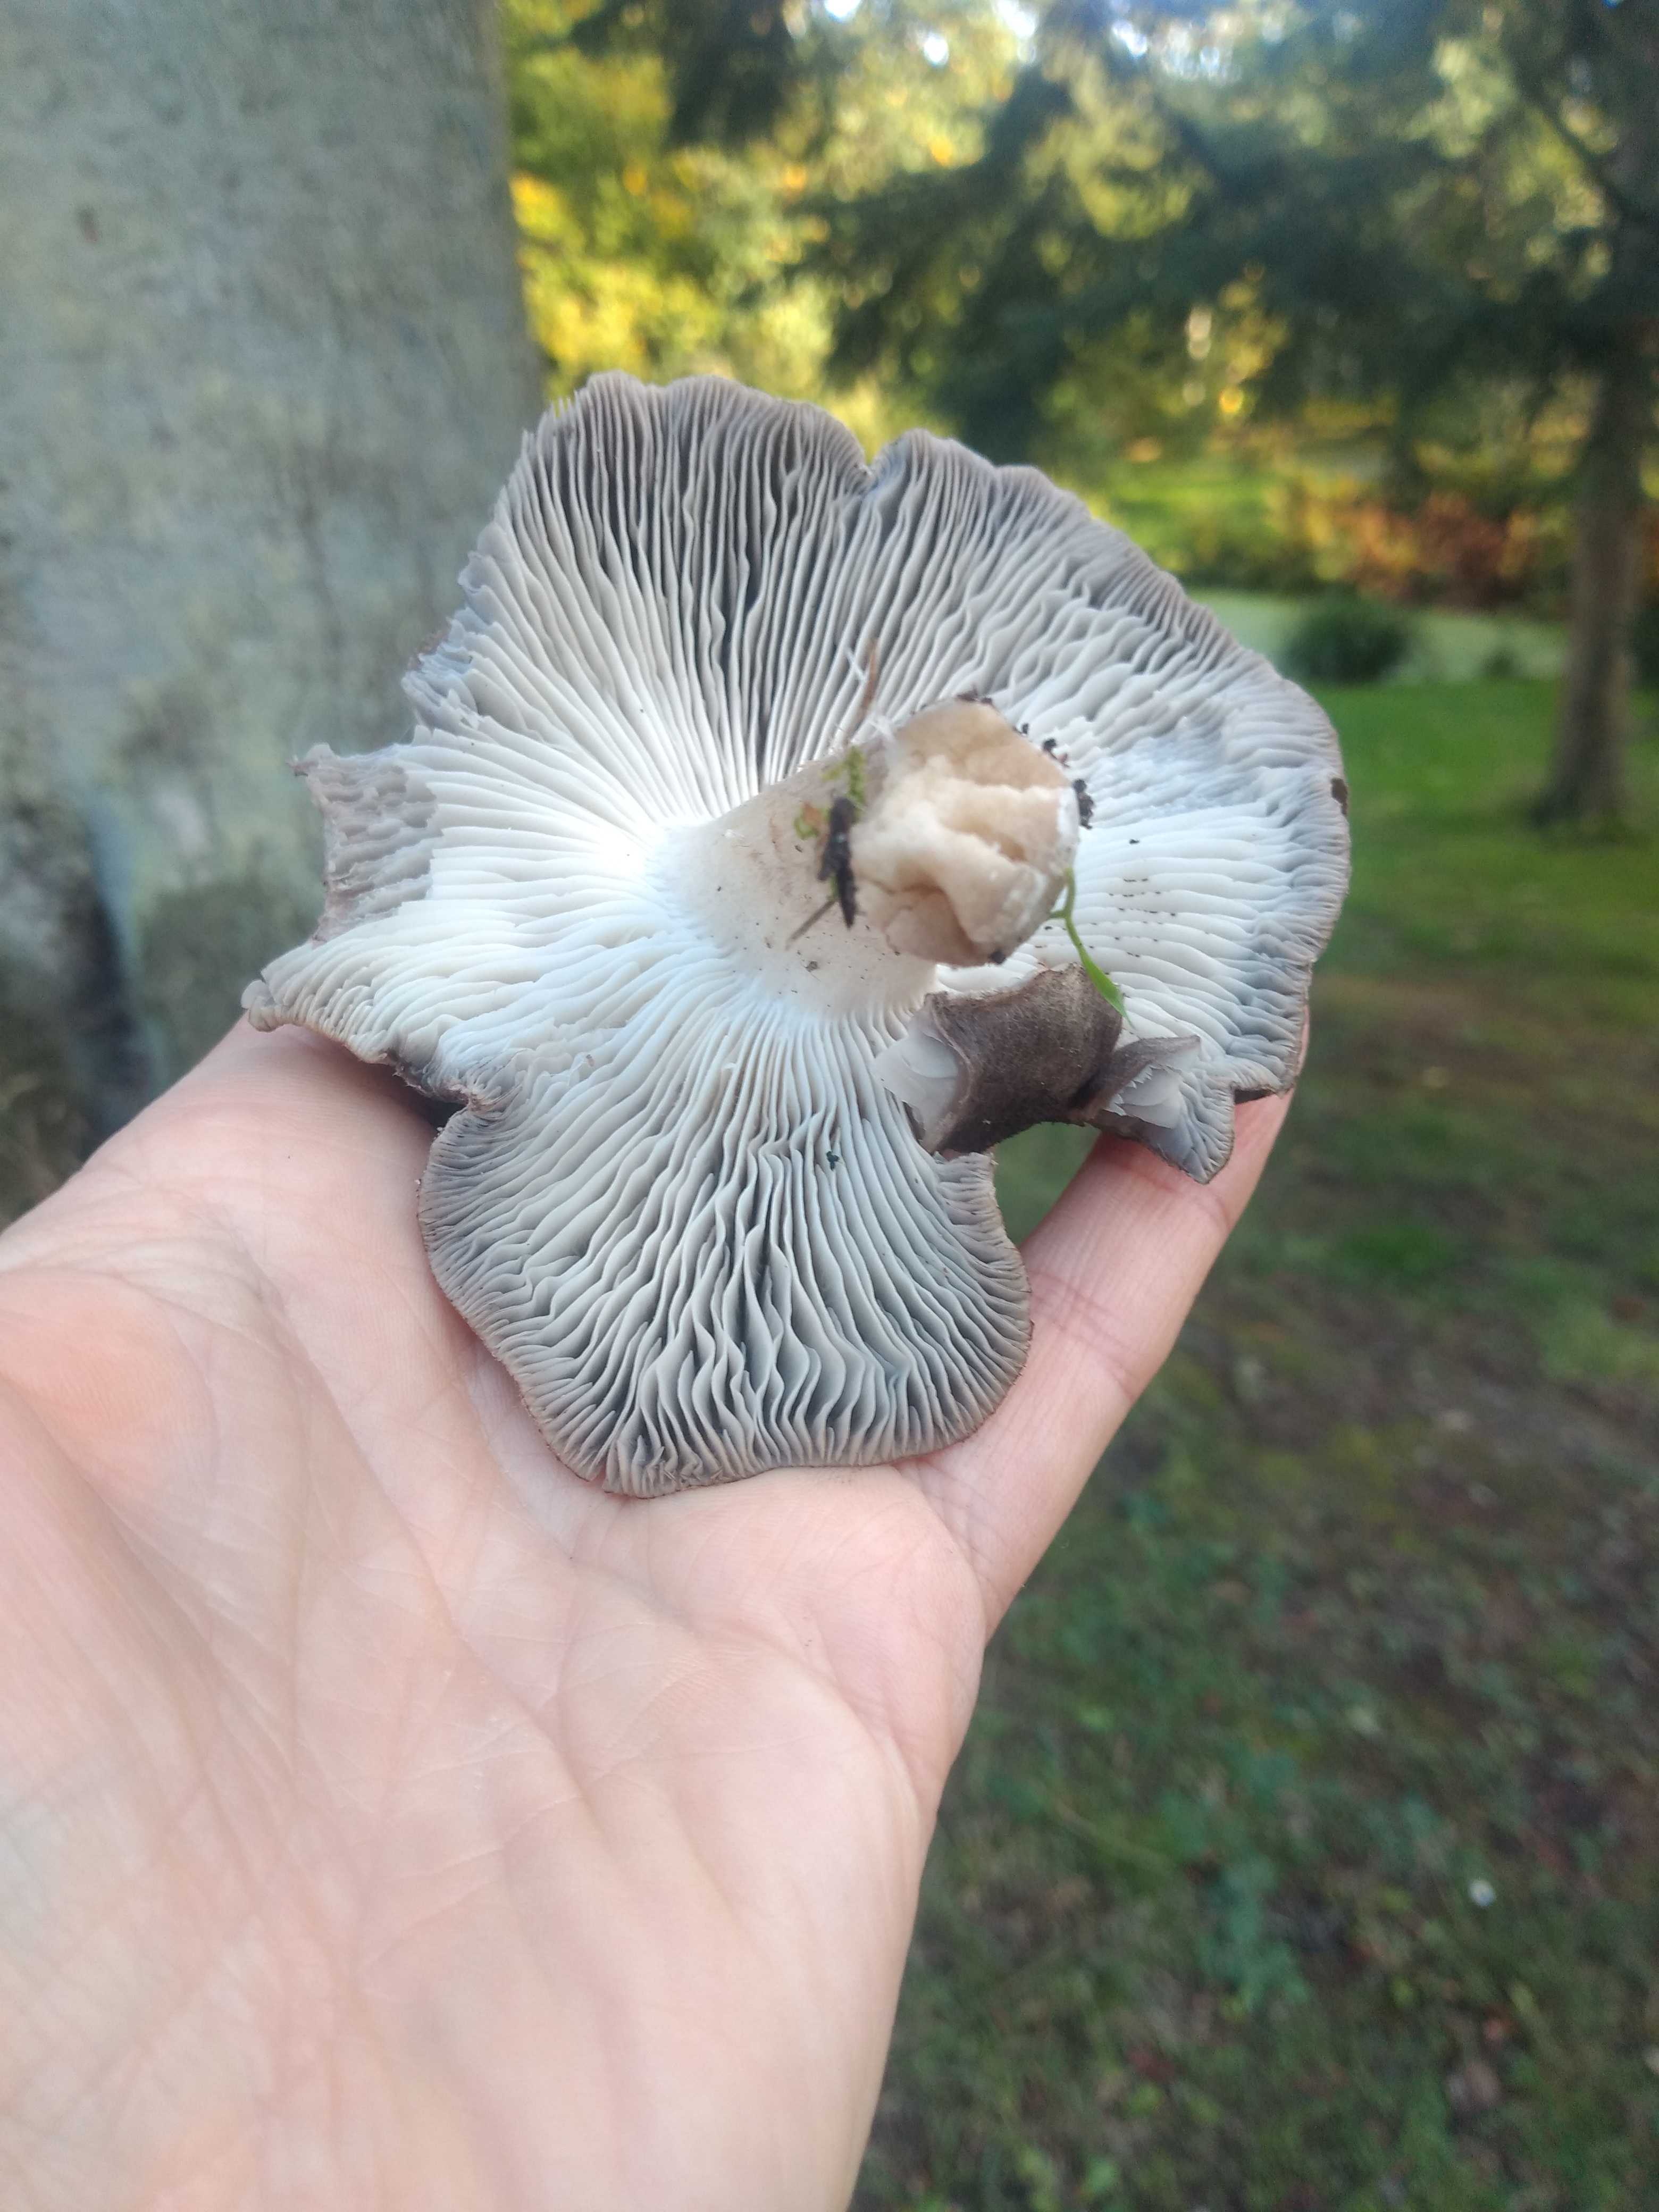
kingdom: Fungi
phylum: Basidiomycota
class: Agaricomycetes
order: Agaricales
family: Tricholomataceae
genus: Tricholoma
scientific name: Tricholoma terreum
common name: jordfarvet ridderhat
